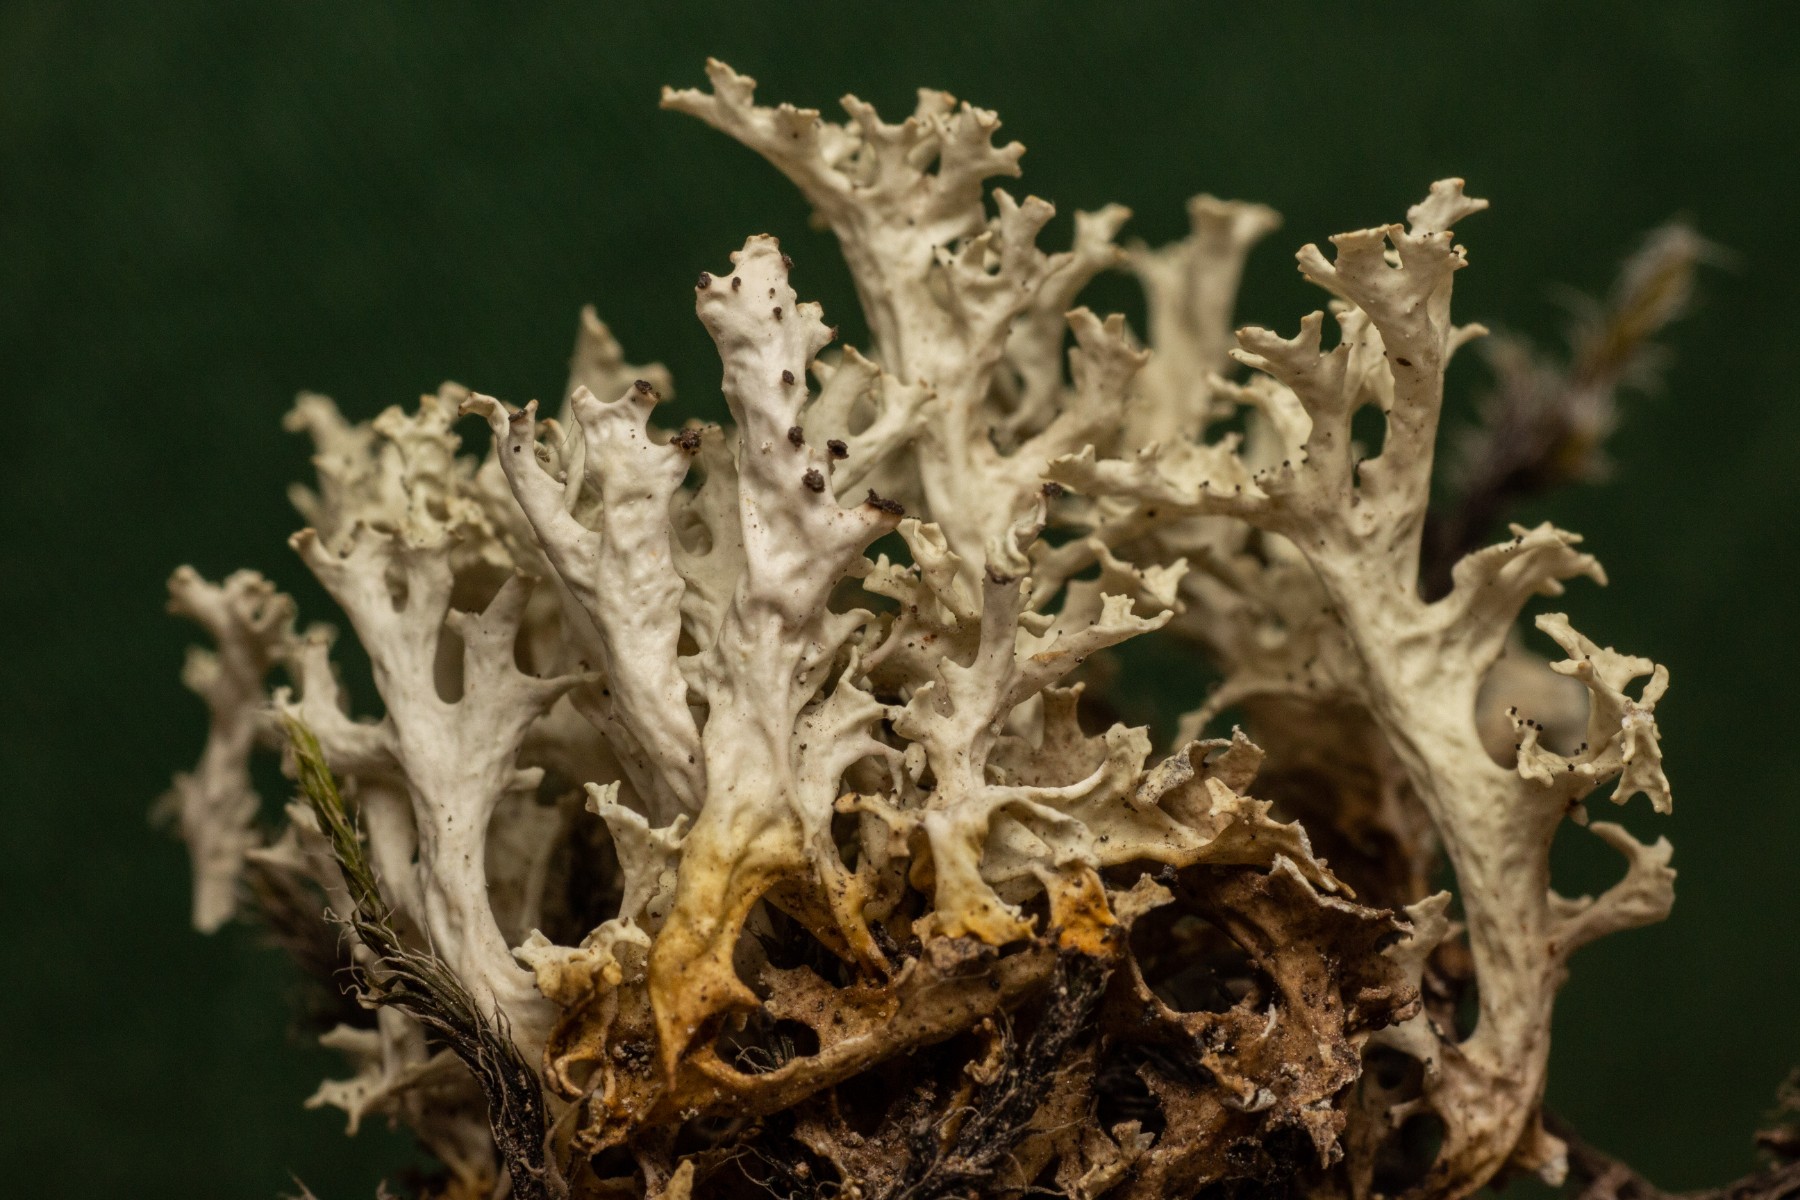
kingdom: Fungi
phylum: Ascomycota
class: Lecanoromycetes
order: Lecanorales
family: Parmeliaceae
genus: Nephromopsis
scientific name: Nephromopsis nivalis
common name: sne-kruslav
